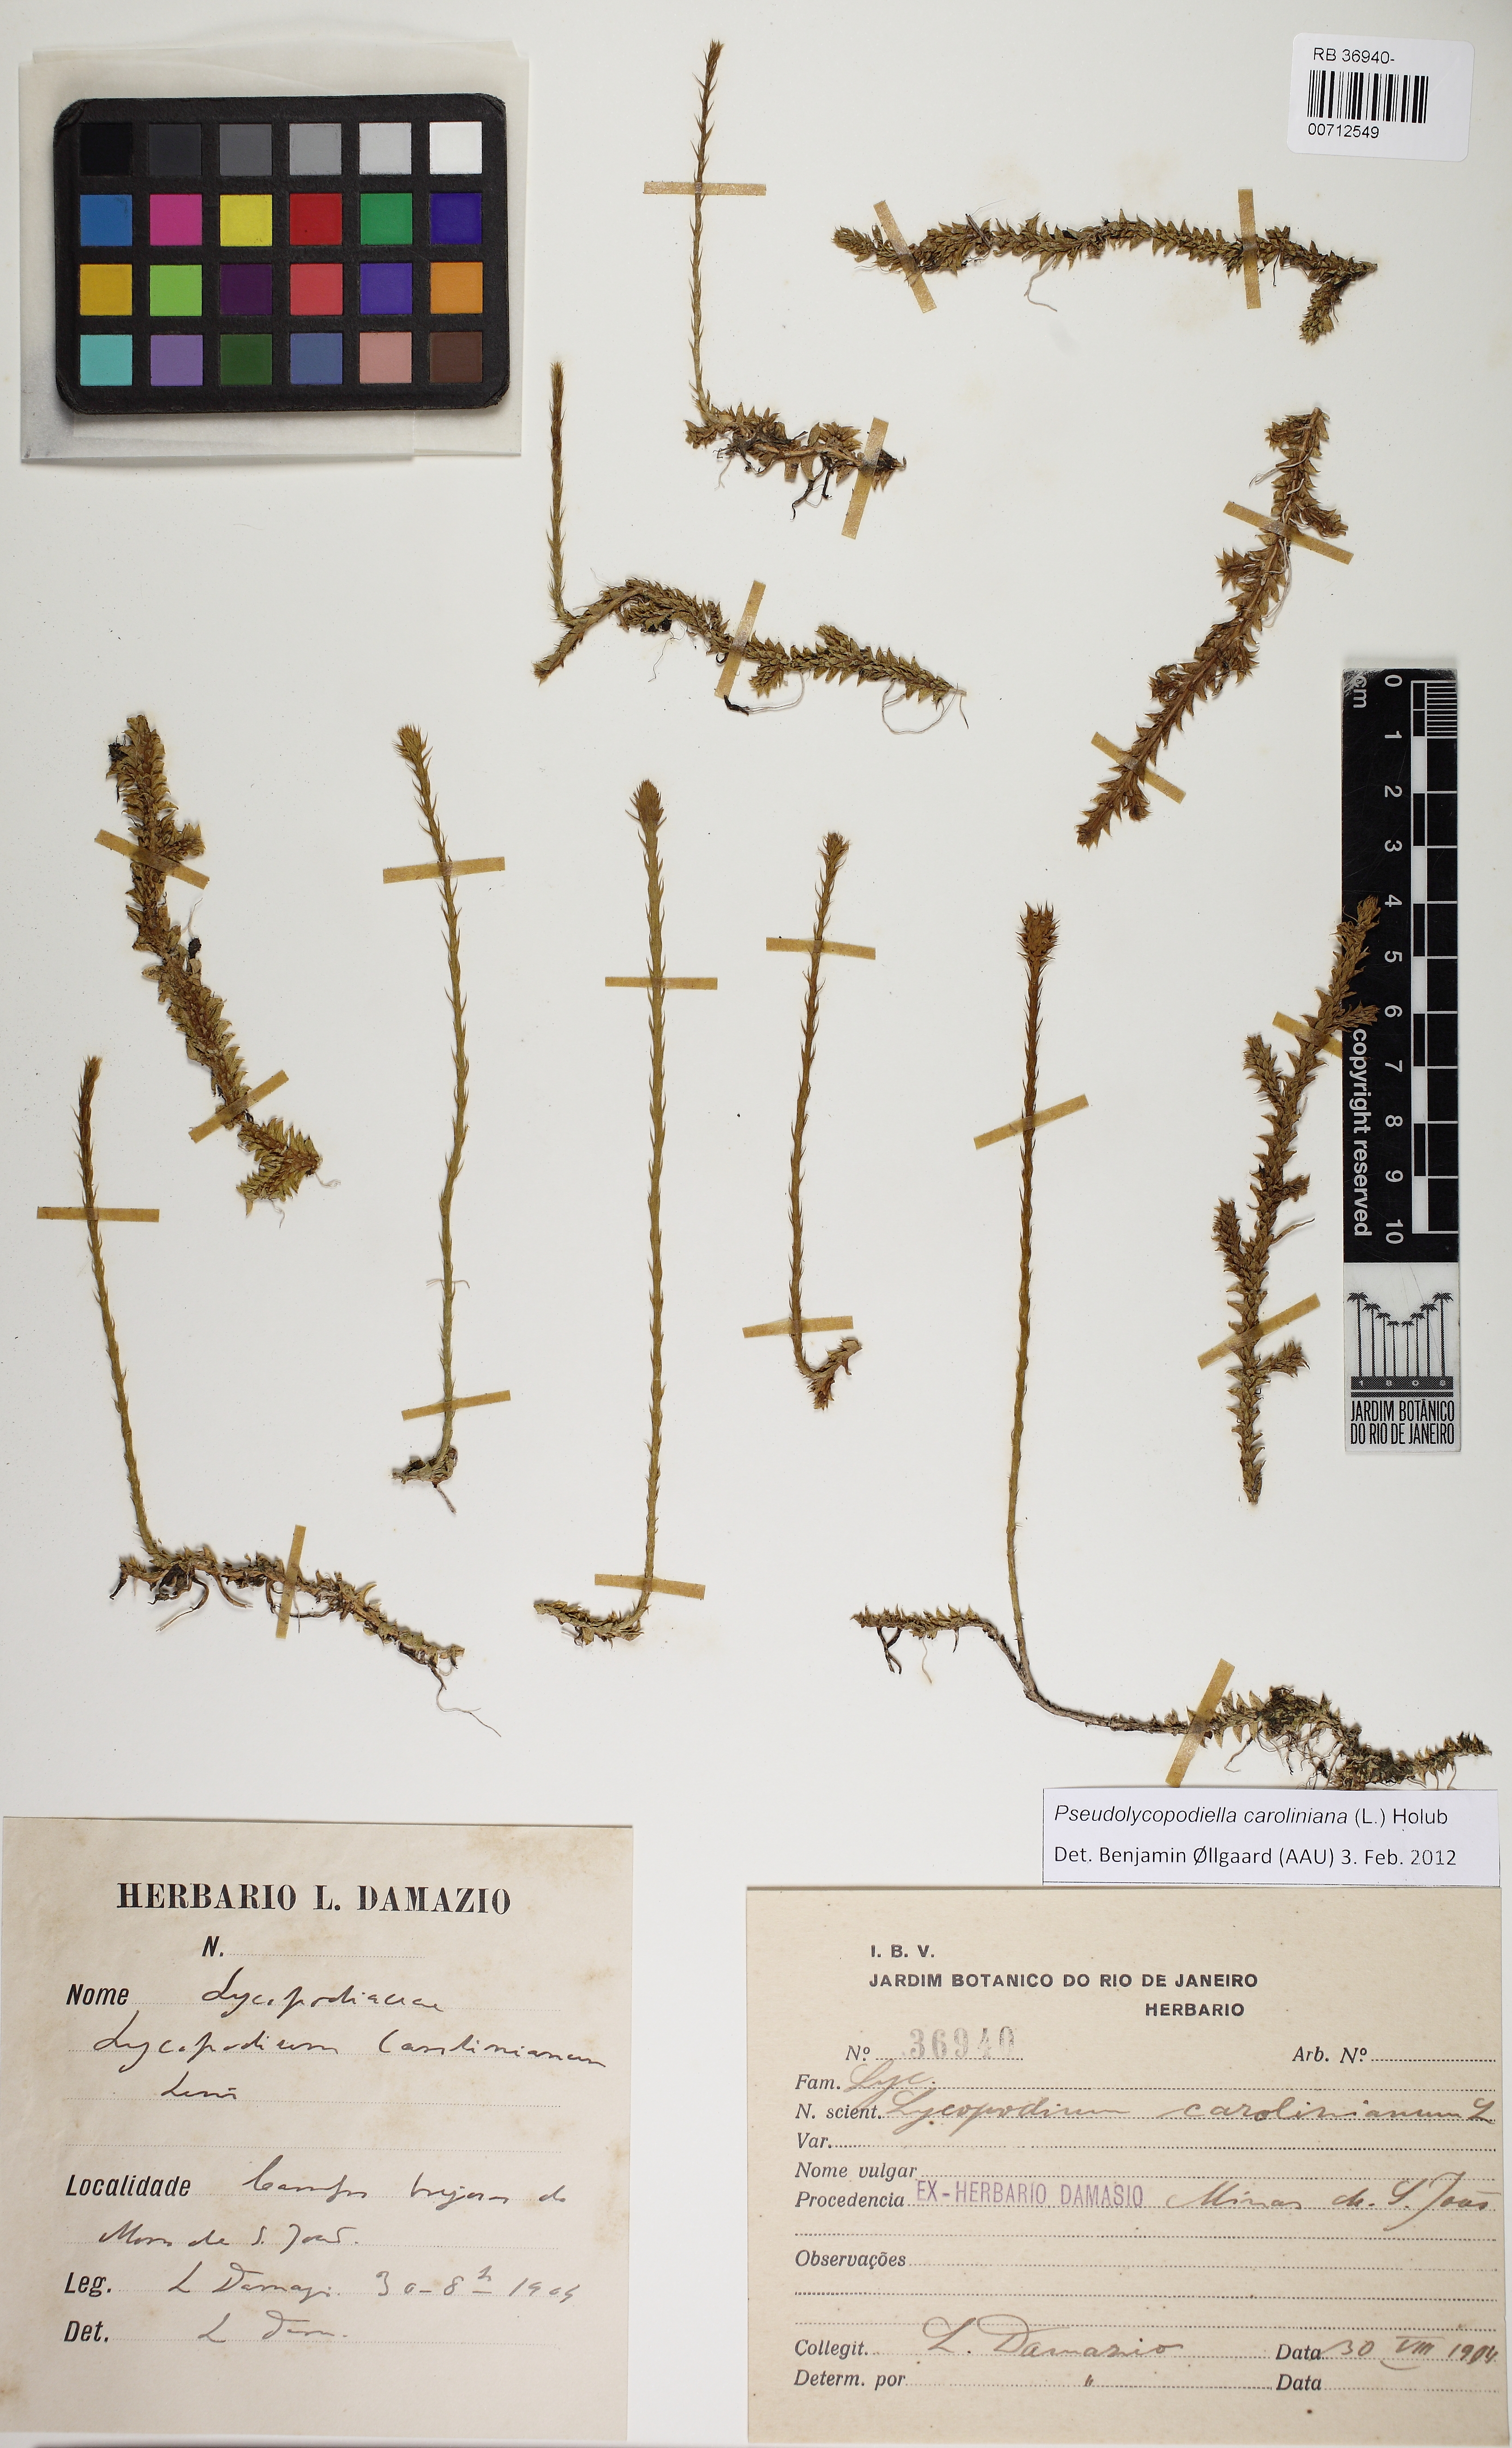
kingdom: Plantae
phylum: Tracheophyta
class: Lycopodiopsida
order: Lycopodiales
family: Lycopodiaceae
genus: Pseudolycopodiella
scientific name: Pseudolycopodiella caroliniana
